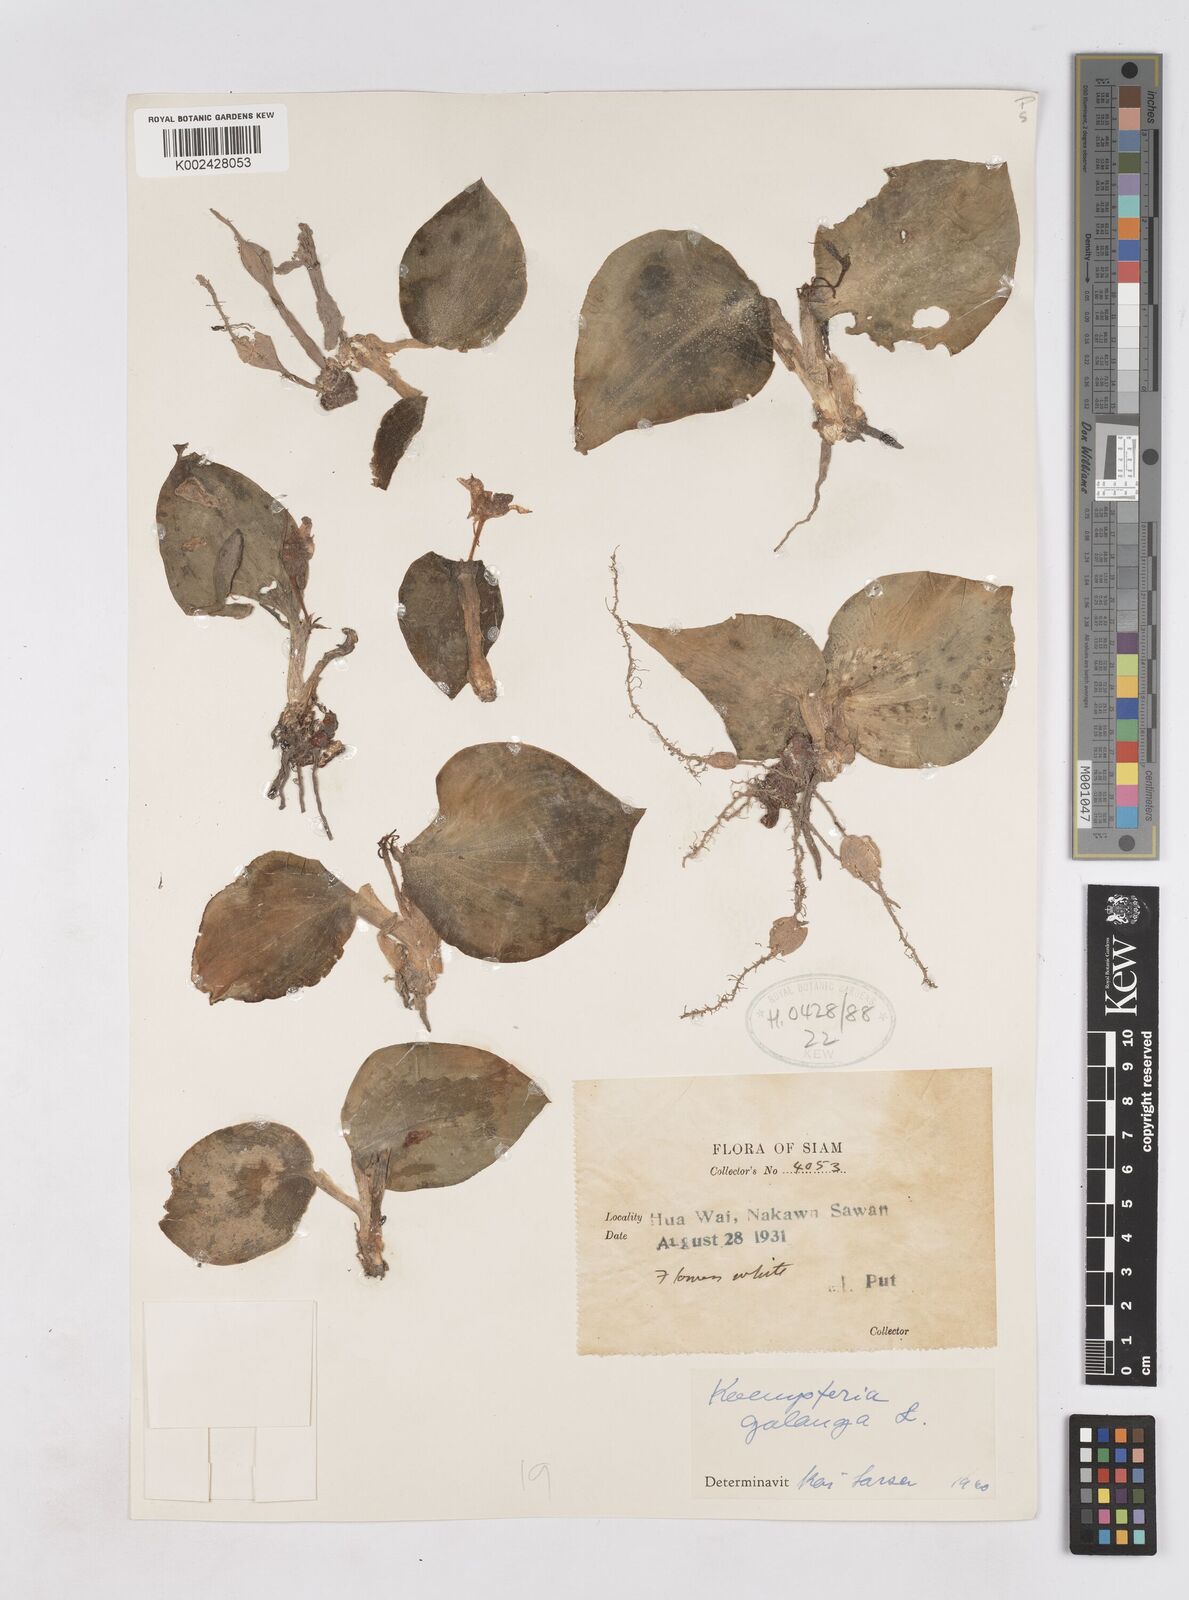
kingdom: Plantae
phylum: Tracheophyta
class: Liliopsida
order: Zingiberales
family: Zingiberaceae
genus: Kaempferia
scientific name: Kaempferia galanga
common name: Aromatic ginger
